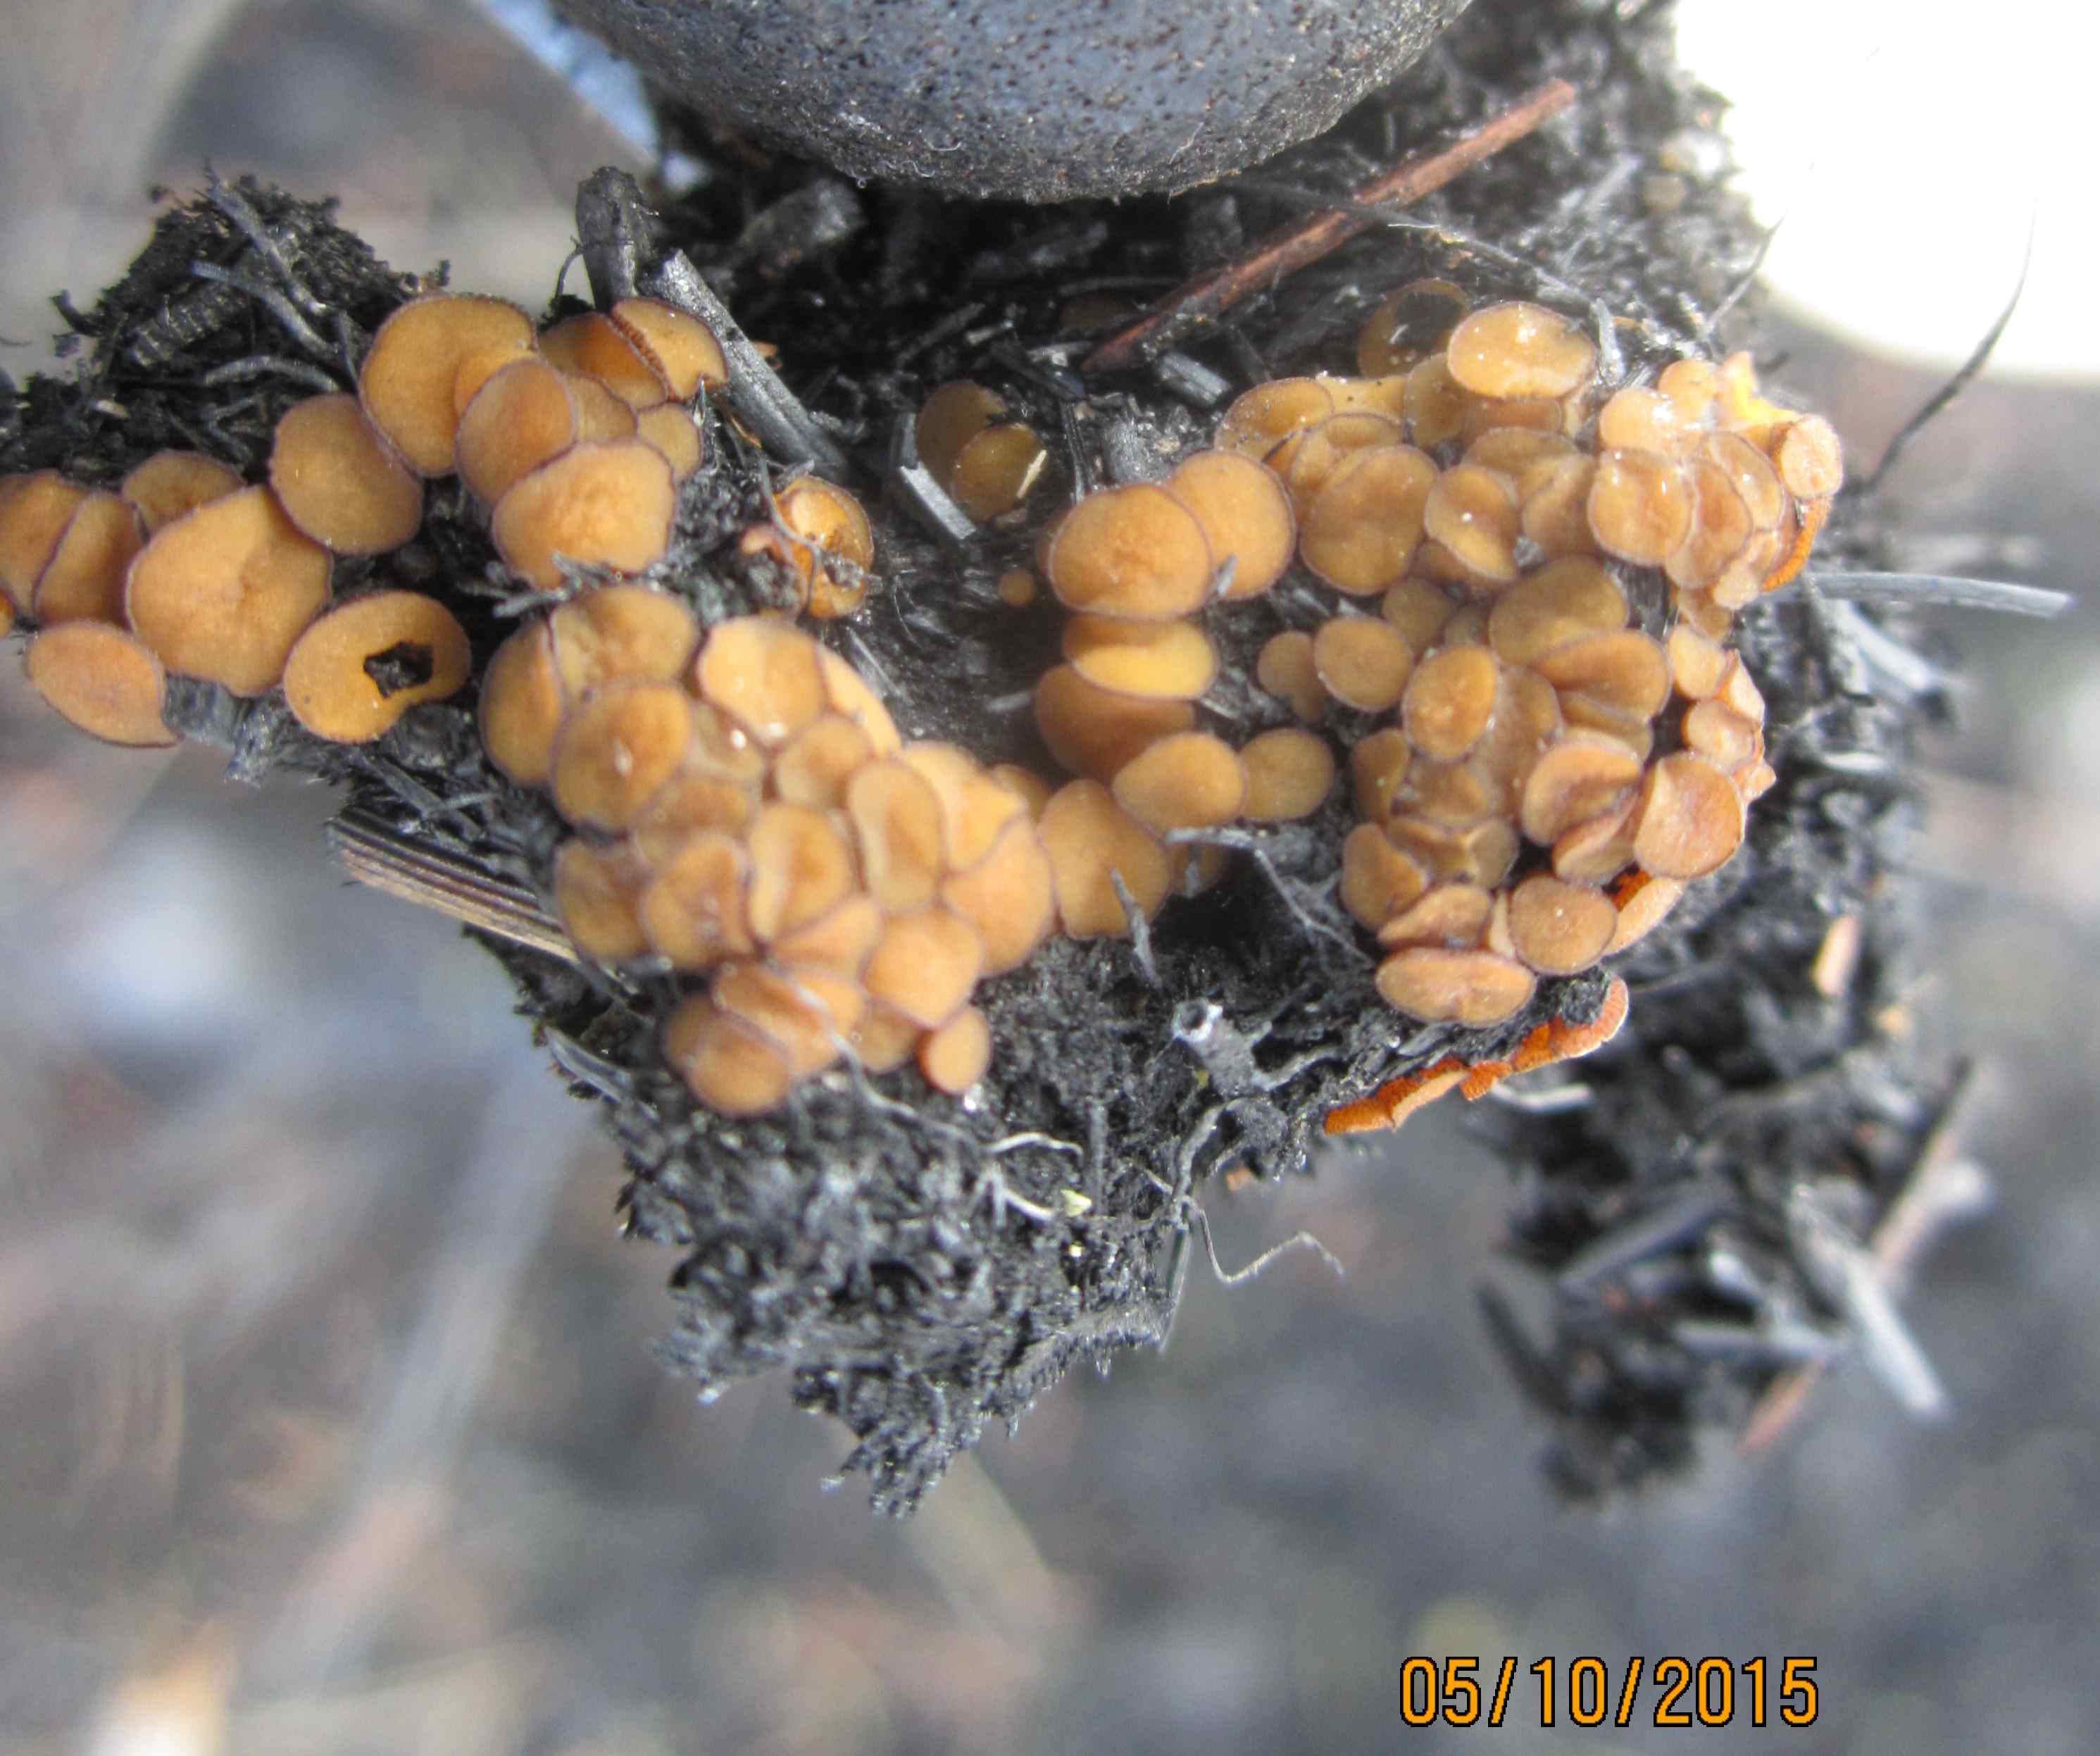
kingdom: Fungi
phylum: Ascomycota
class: Pezizomycetes
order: Pezizales
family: Pyronemataceae
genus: Anthracobia
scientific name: Anthracobia maurilabra
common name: brunorange ildbæger
